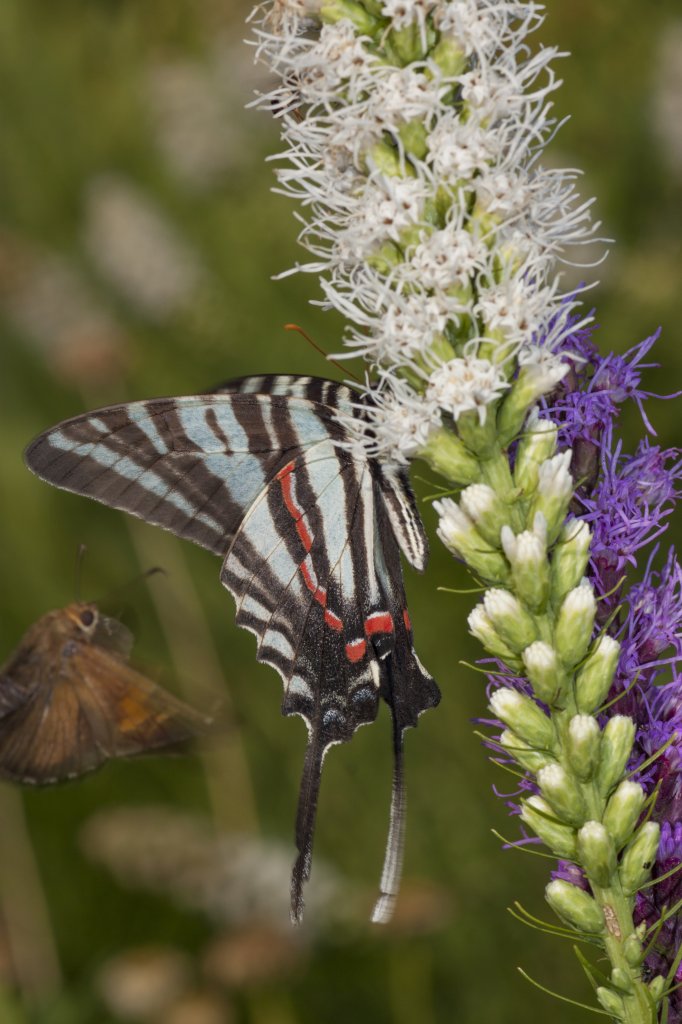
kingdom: Animalia
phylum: Arthropoda
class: Insecta
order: Lepidoptera
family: Papilionidae
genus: Protographium
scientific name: Protographium marcellus
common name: Zebra Swallowtail
